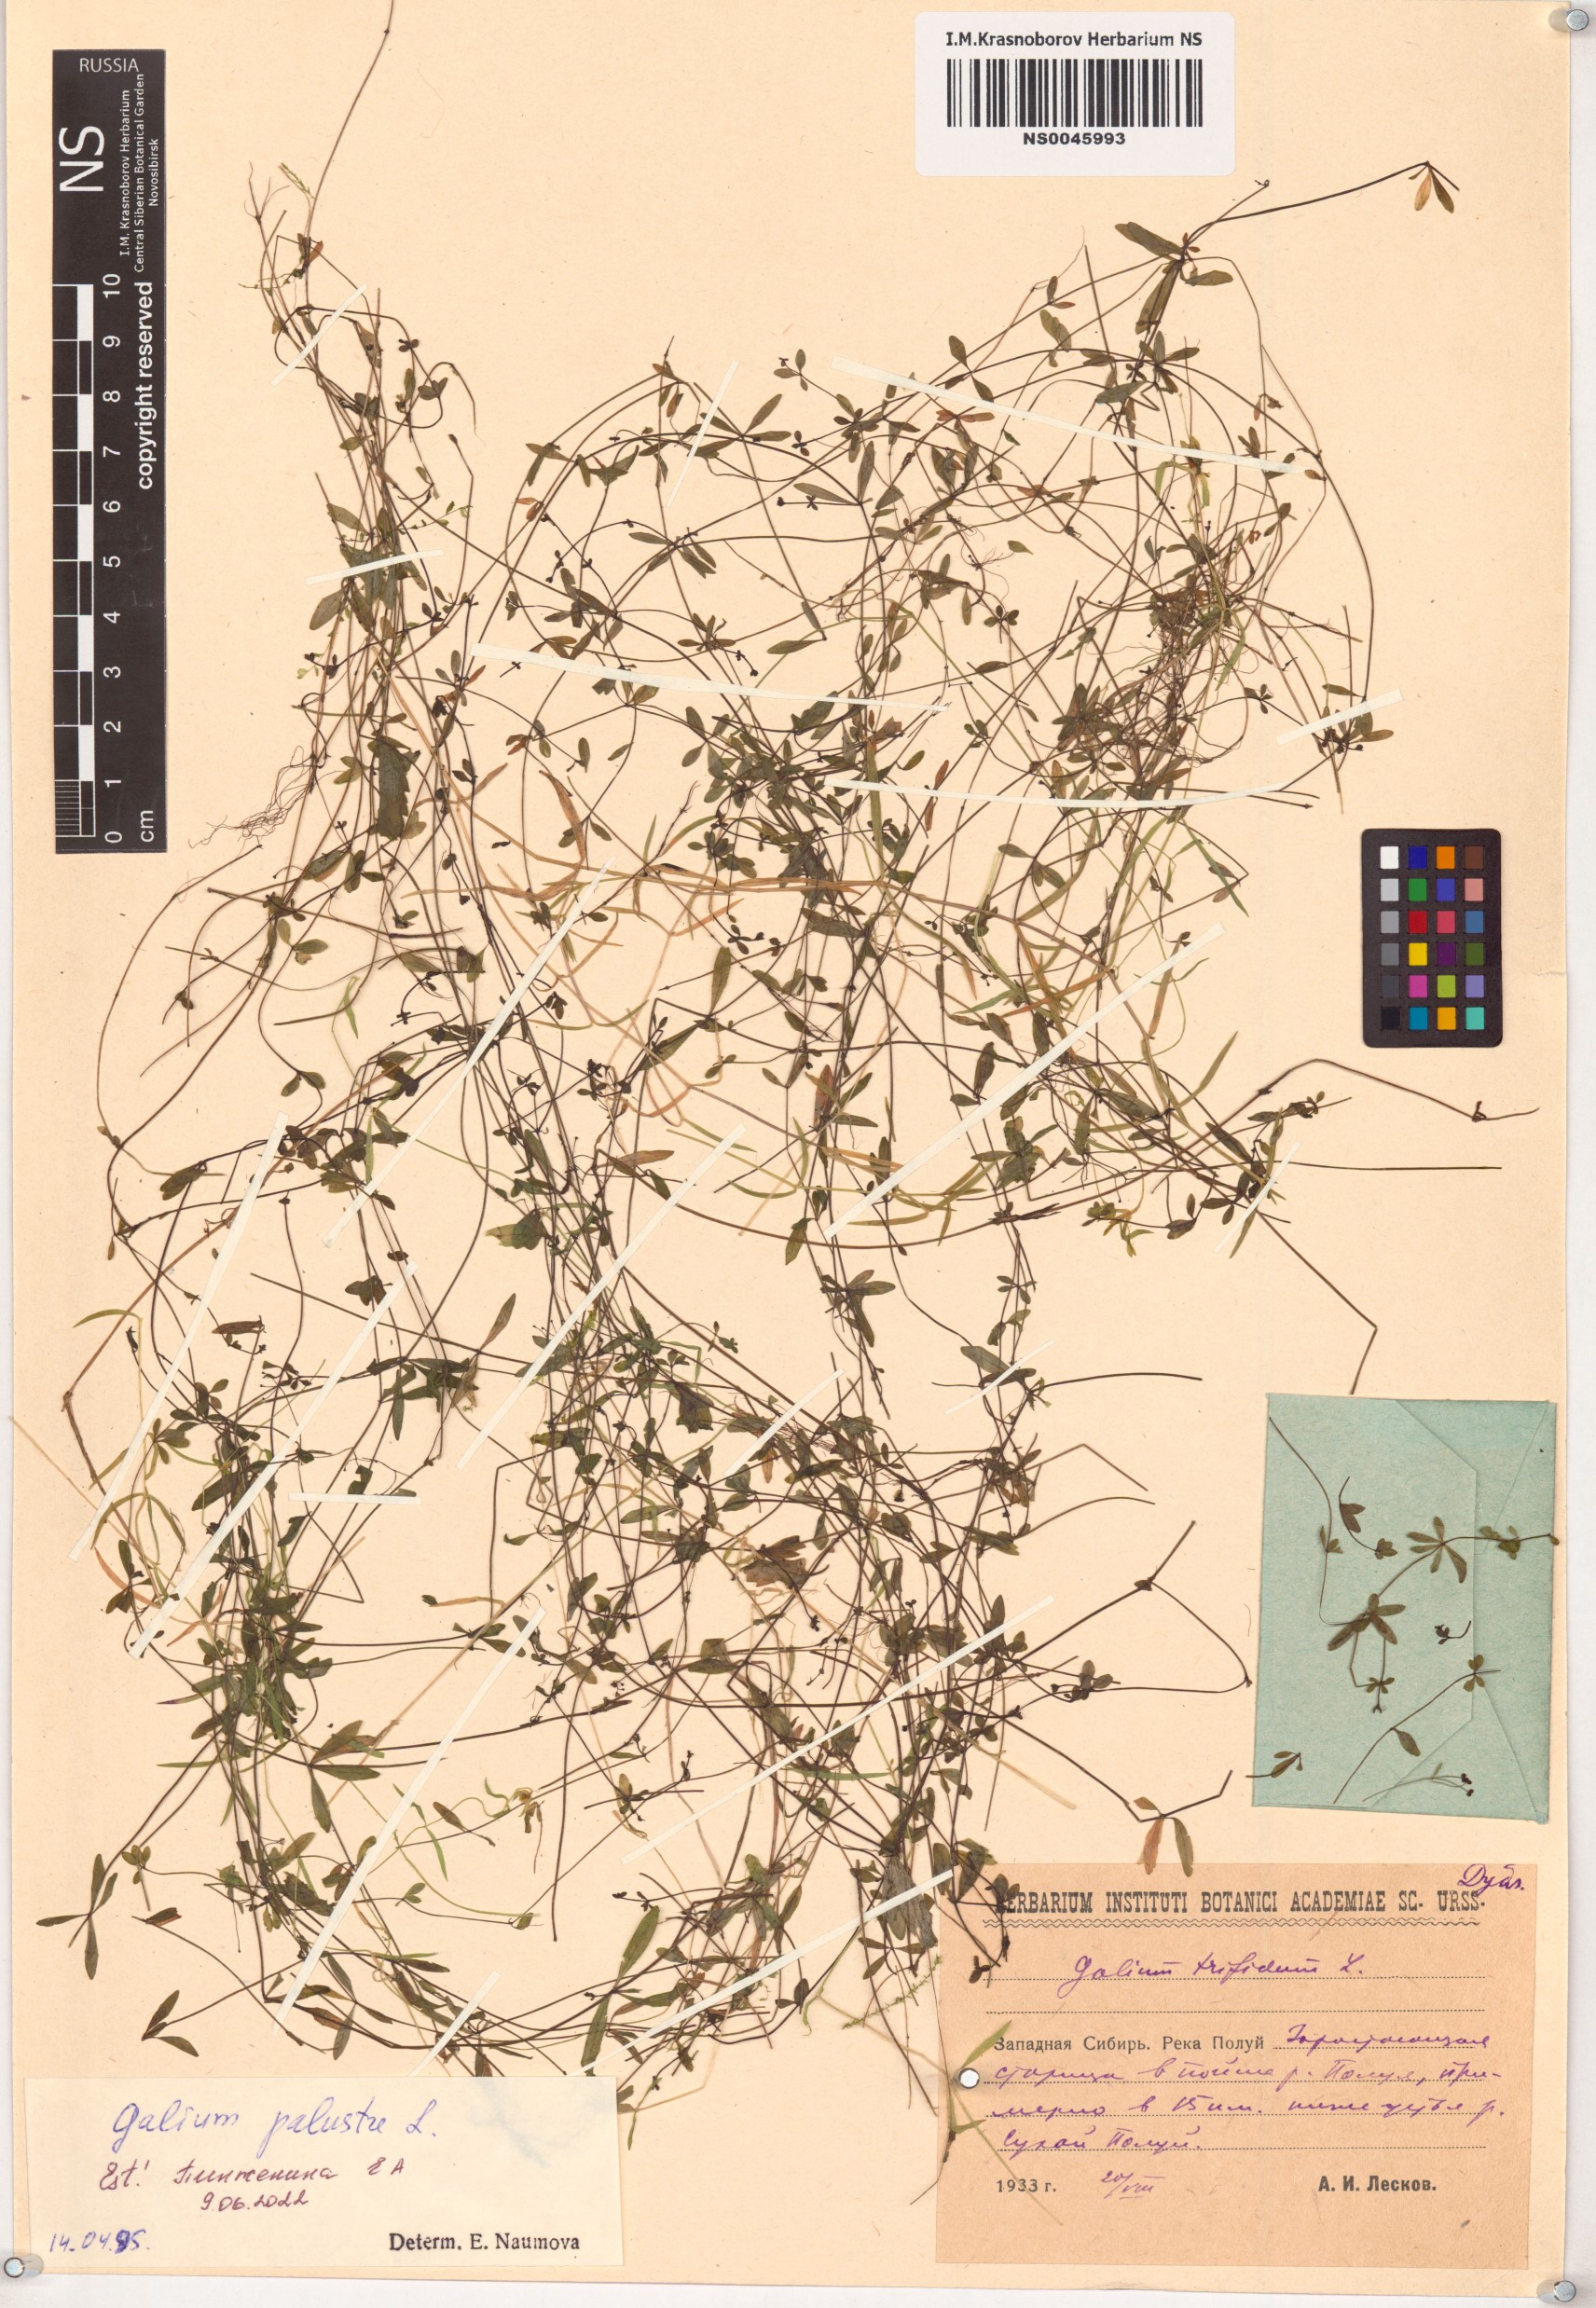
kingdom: Plantae
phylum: Tracheophyta
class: Magnoliopsida
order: Gentianales
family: Rubiaceae
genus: Galium
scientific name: Galium palustre
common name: Common marsh-bedstraw
